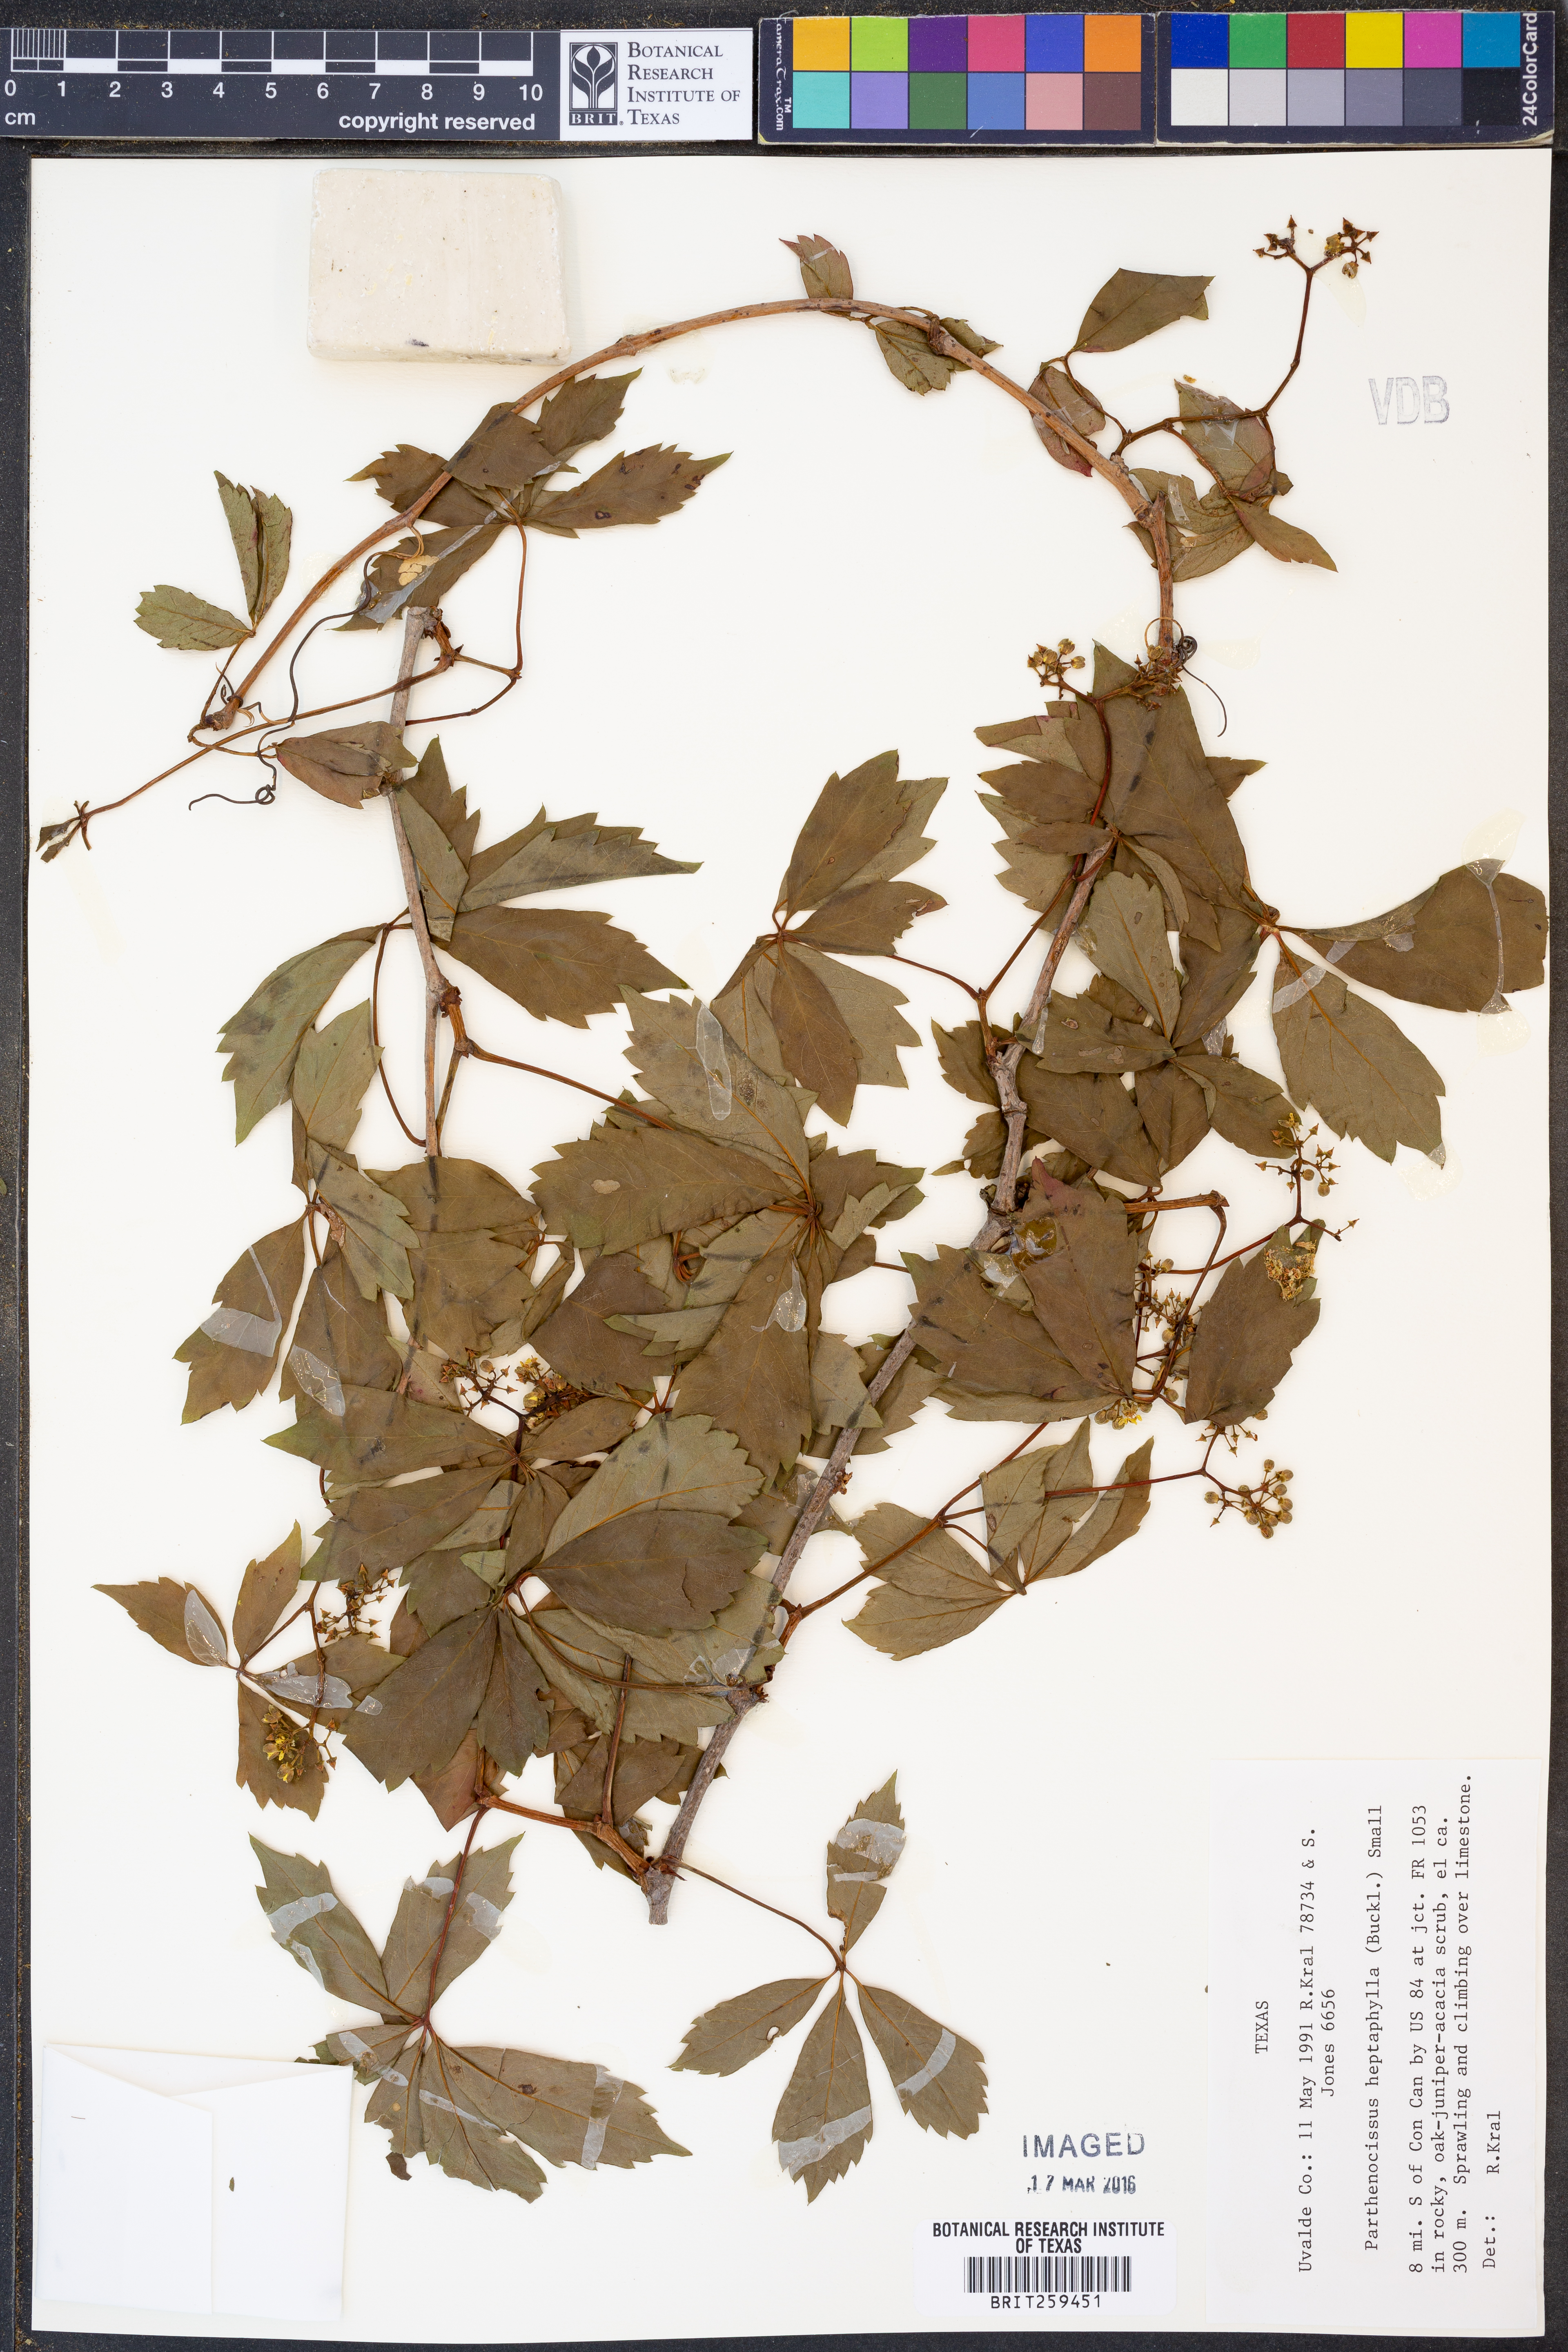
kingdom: Plantae
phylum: Tracheophyta
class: Magnoliopsida
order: Vitales
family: Vitaceae
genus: Parthenocissus
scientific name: Parthenocissus heptaphylla
